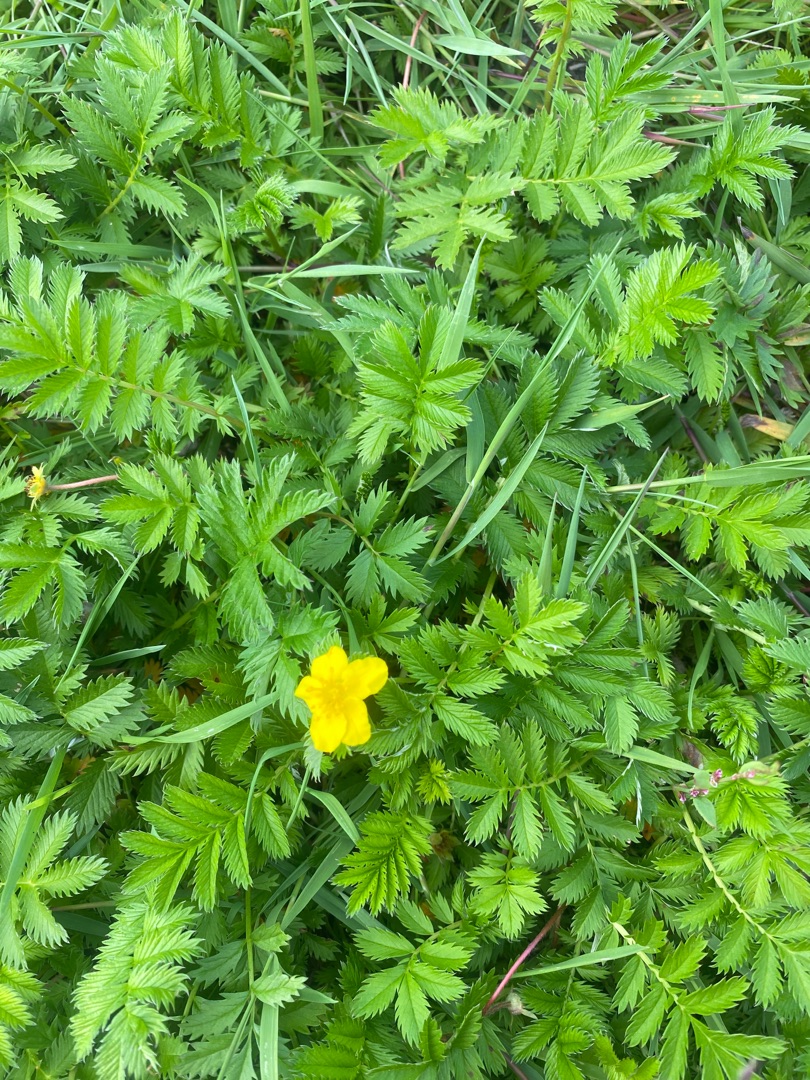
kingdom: Plantae
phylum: Tracheophyta
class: Magnoliopsida
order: Rosales
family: Rosaceae
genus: Argentina
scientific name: Argentina anserina
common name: Gåsepotentil
